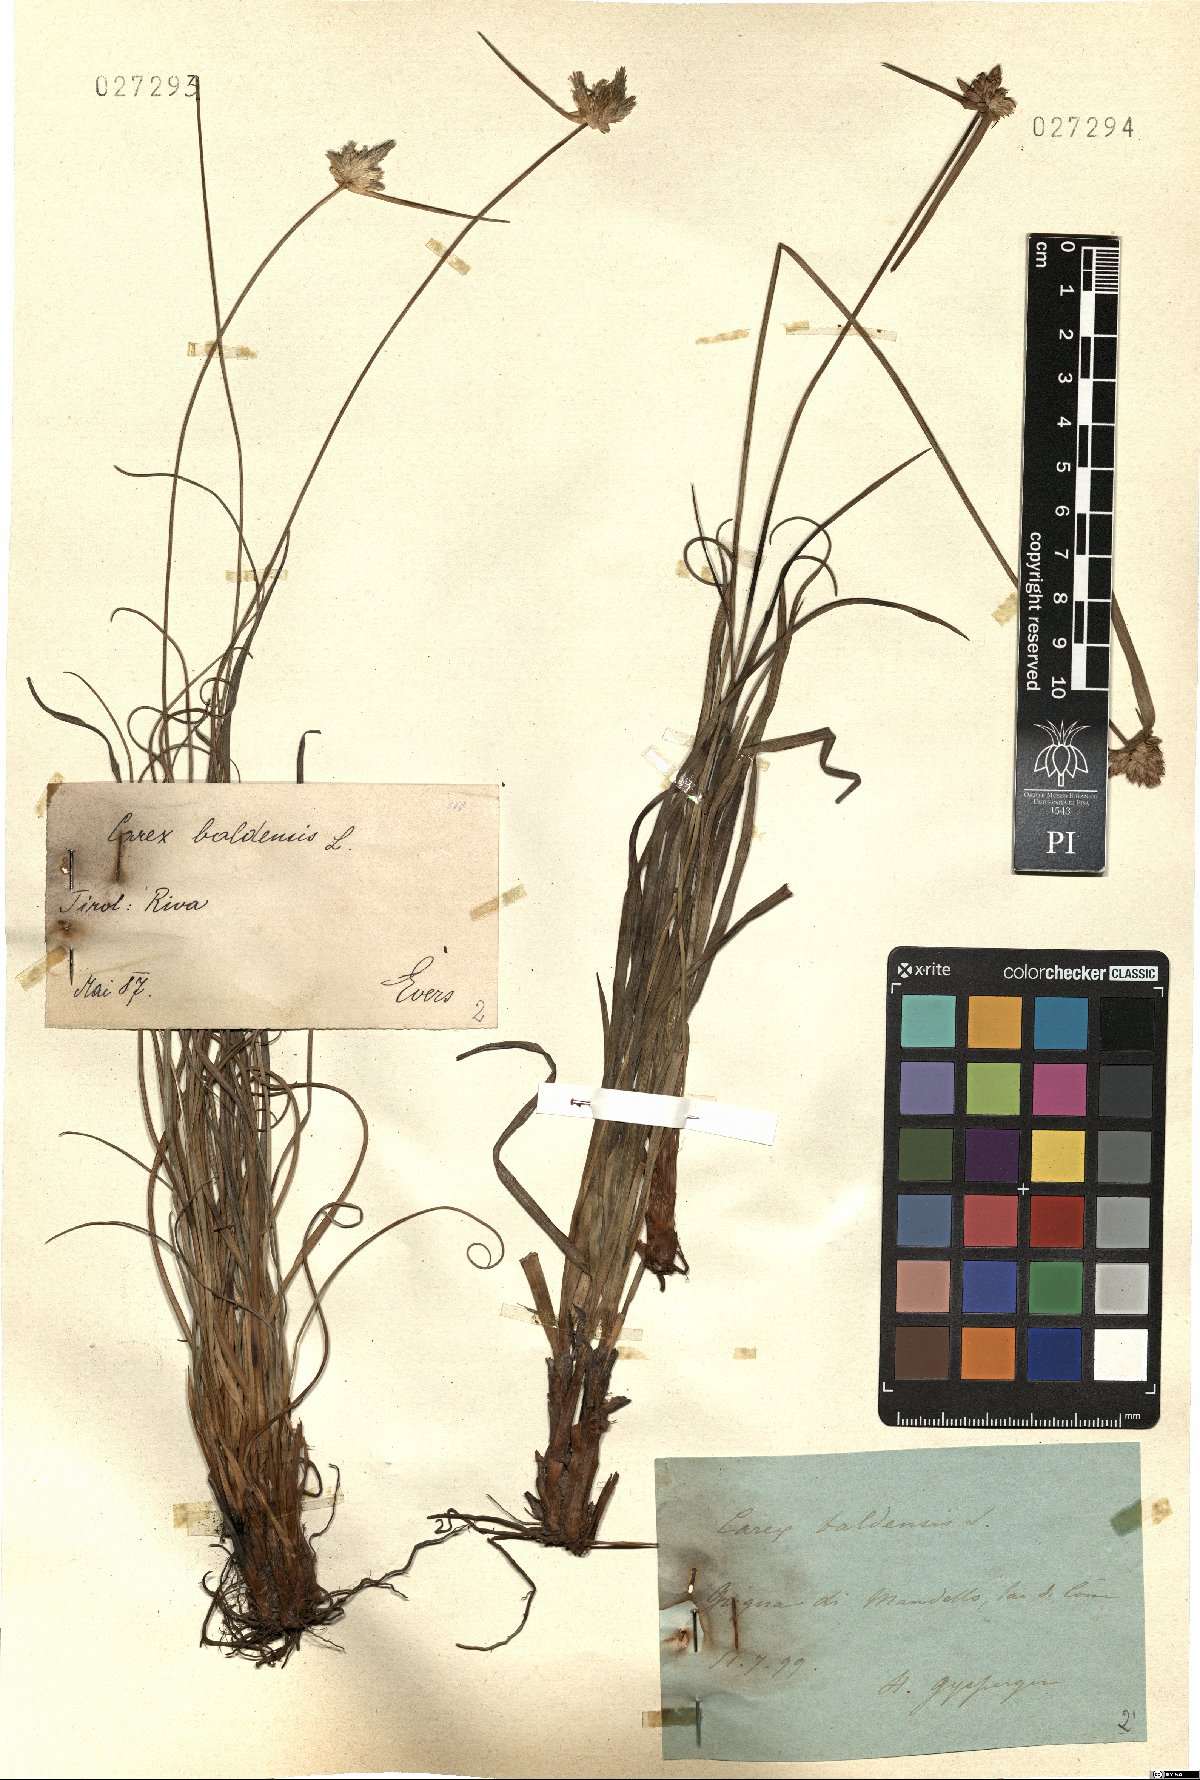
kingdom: Plantae
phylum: Tracheophyta
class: Liliopsida
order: Poales
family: Cyperaceae
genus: Carex
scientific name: Carex baldensis
